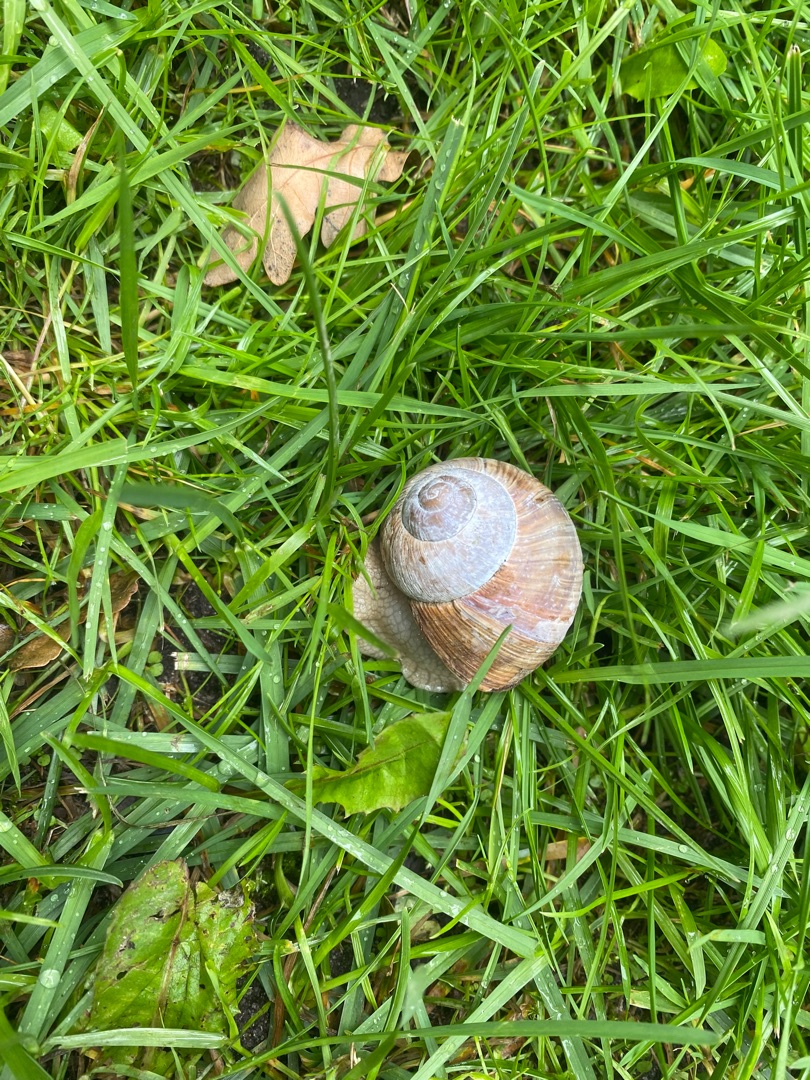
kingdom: Animalia
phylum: Mollusca
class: Gastropoda
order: Stylommatophora
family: Helicidae
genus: Helix
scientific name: Helix pomatia
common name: Vinbjergsnegl
